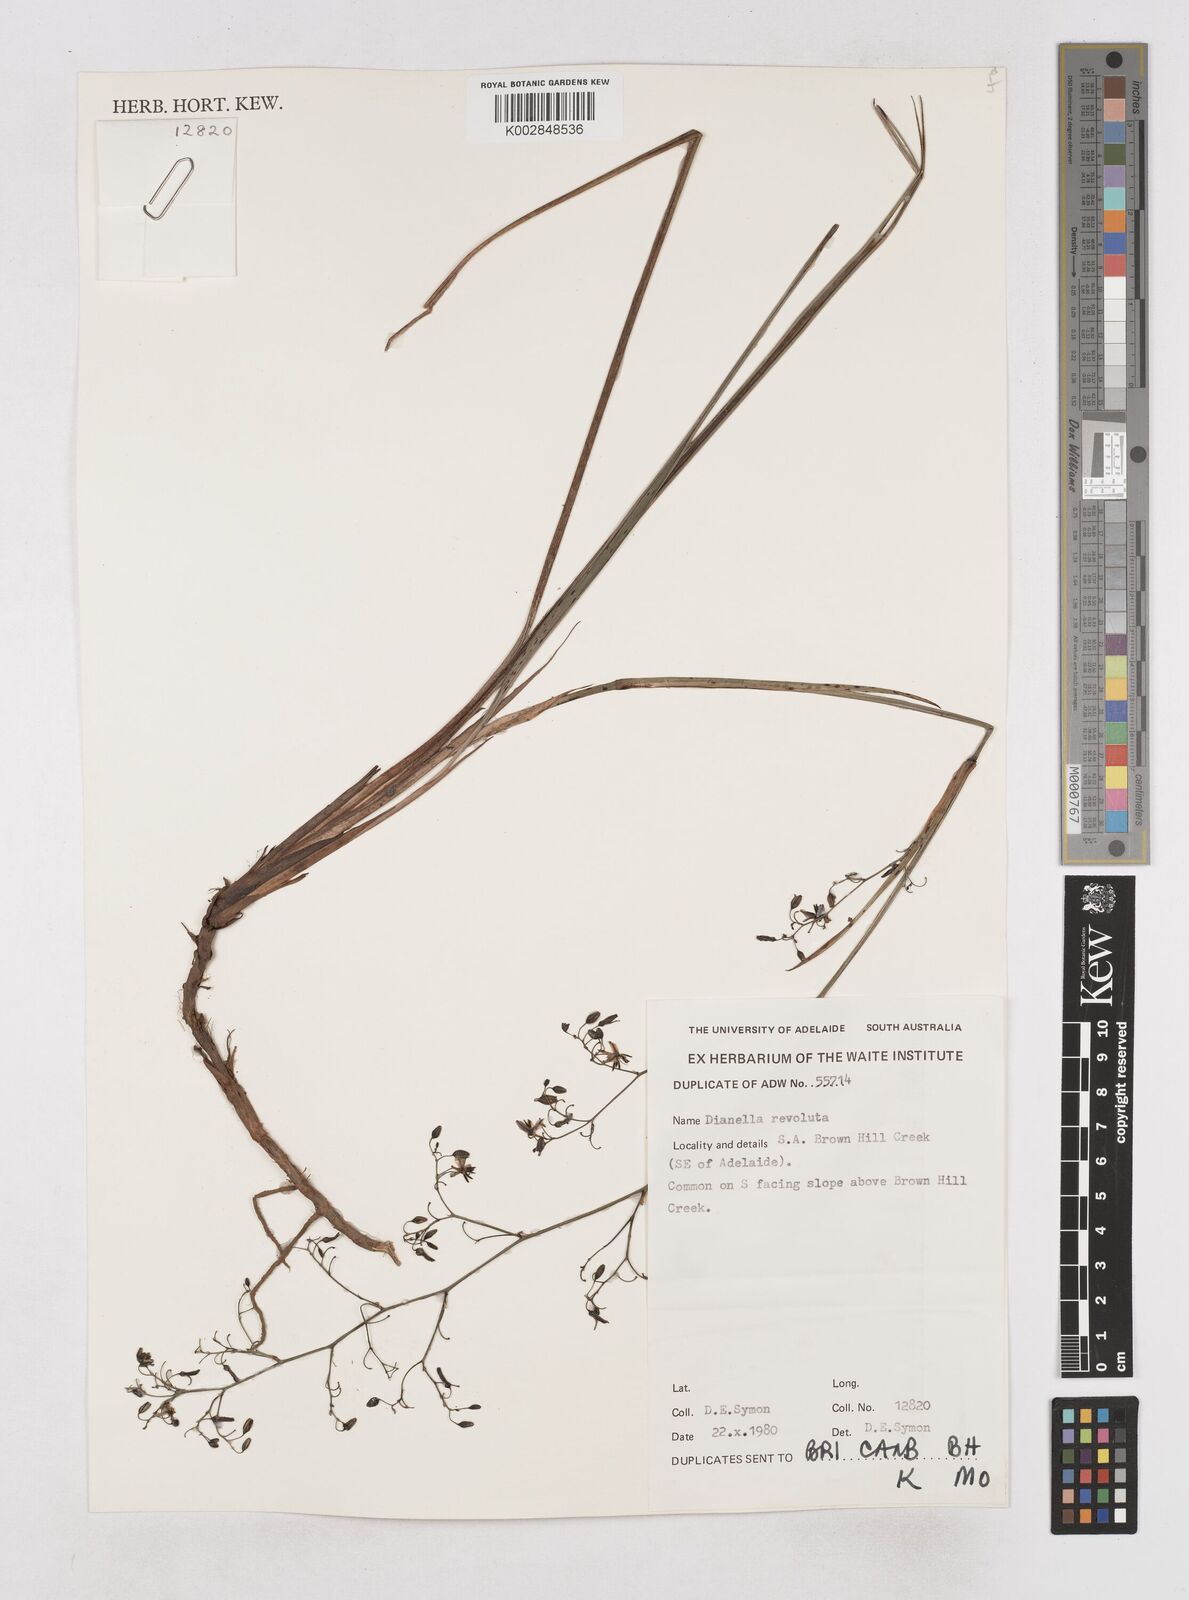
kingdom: Plantae
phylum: Tracheophyta
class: Liliopsida
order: Asparagales
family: Asphodelaceae
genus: Dianella
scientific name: Dianella revoluta
